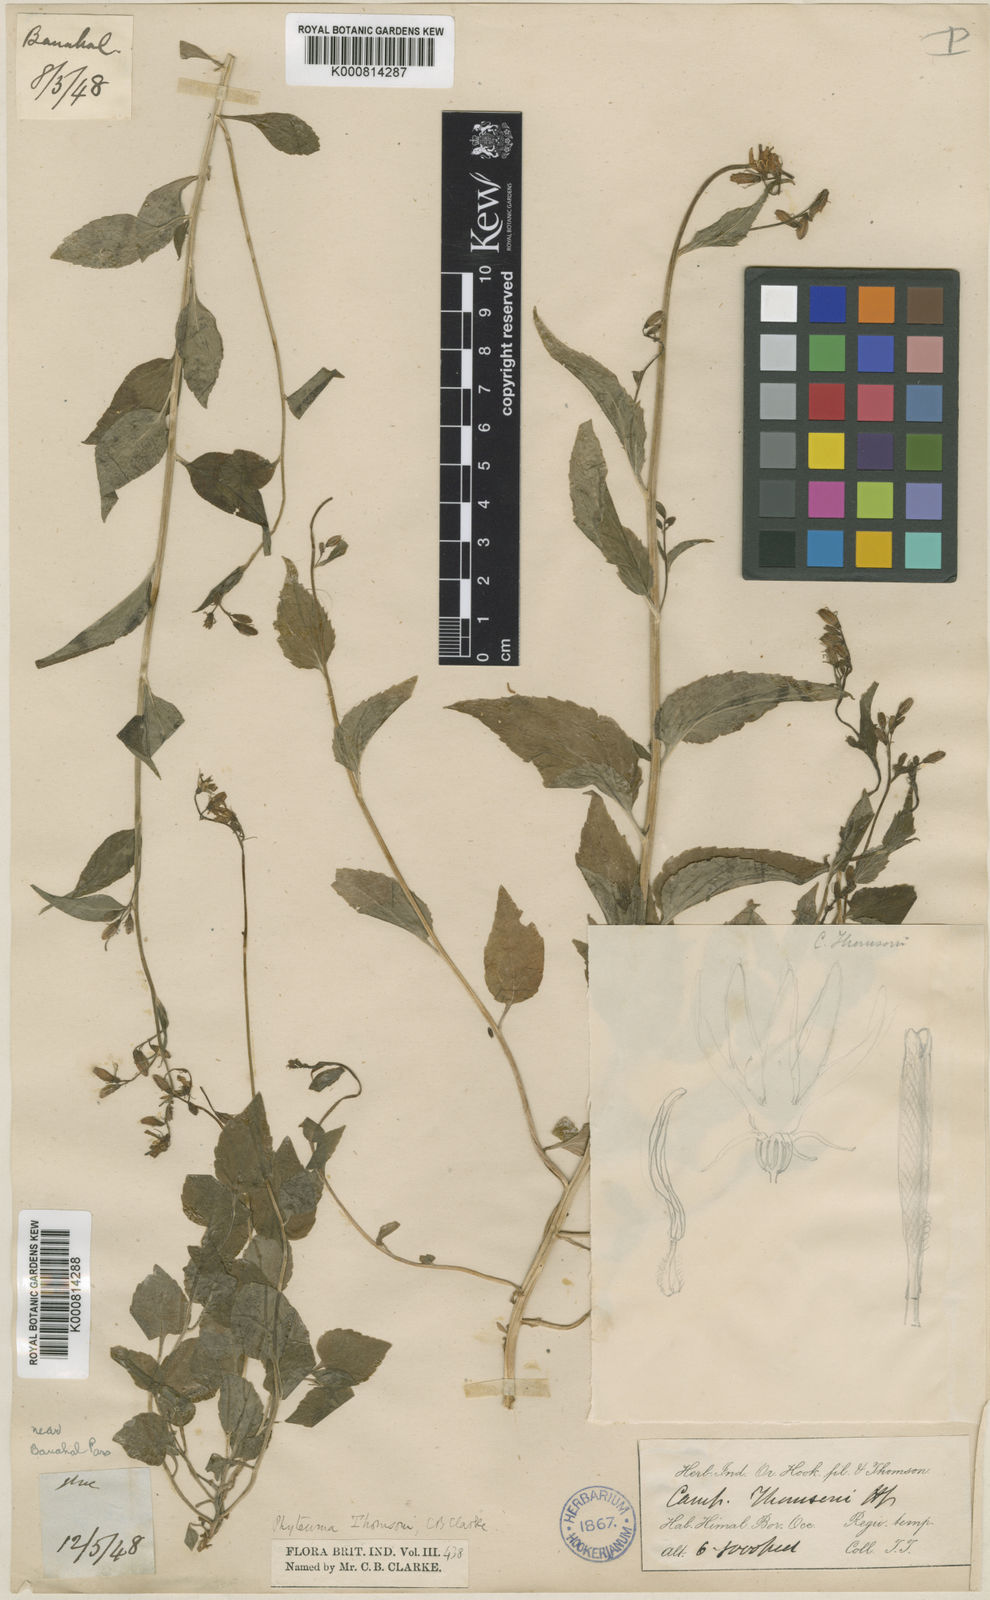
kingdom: Plantae
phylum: Tracheophyta
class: Magnoliopsida
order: Asterales
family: Campanulaceae
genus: Asyneuma
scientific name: Asyneuma thomsonii
